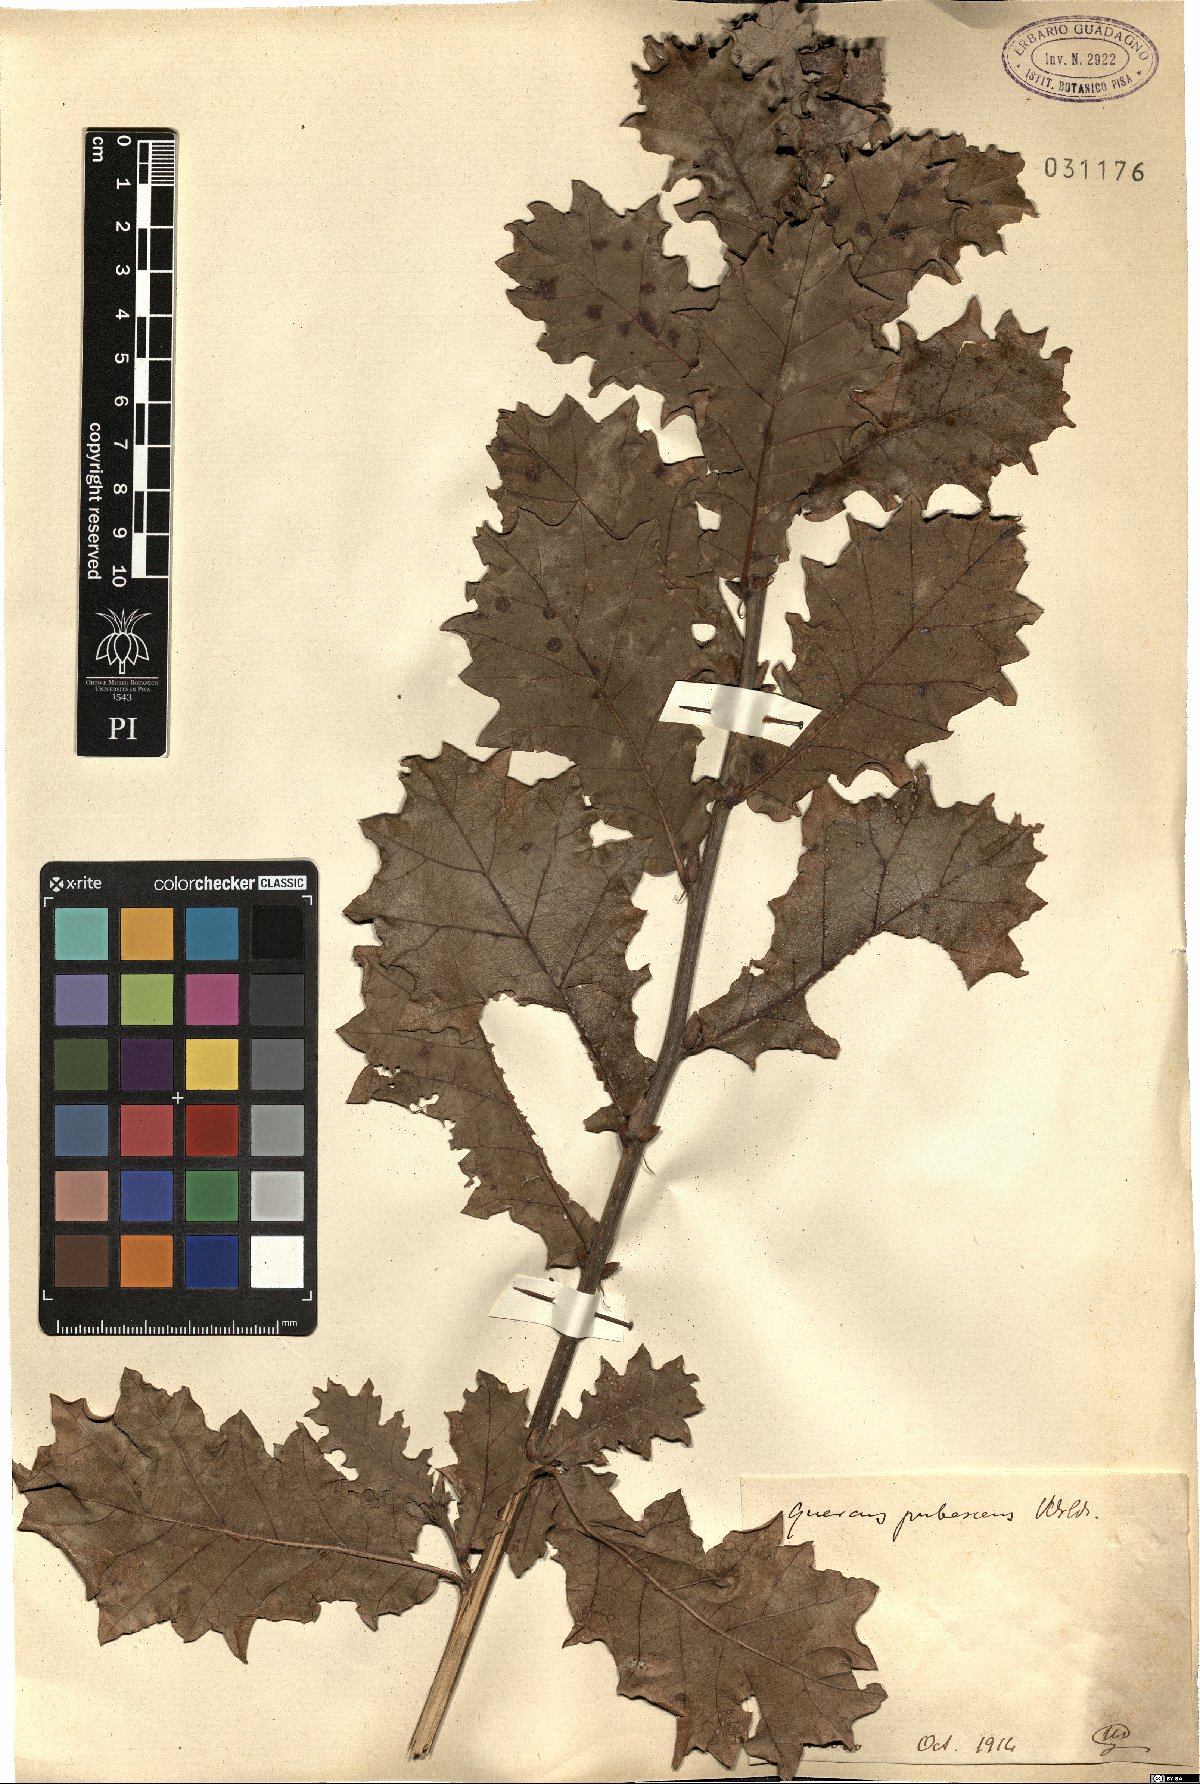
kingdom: Plantae
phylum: Tracheophyta
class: Magnoliopsida
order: Fagales
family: Fagaceae
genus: Quercus
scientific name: Quercus pubescens
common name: Downy oak
